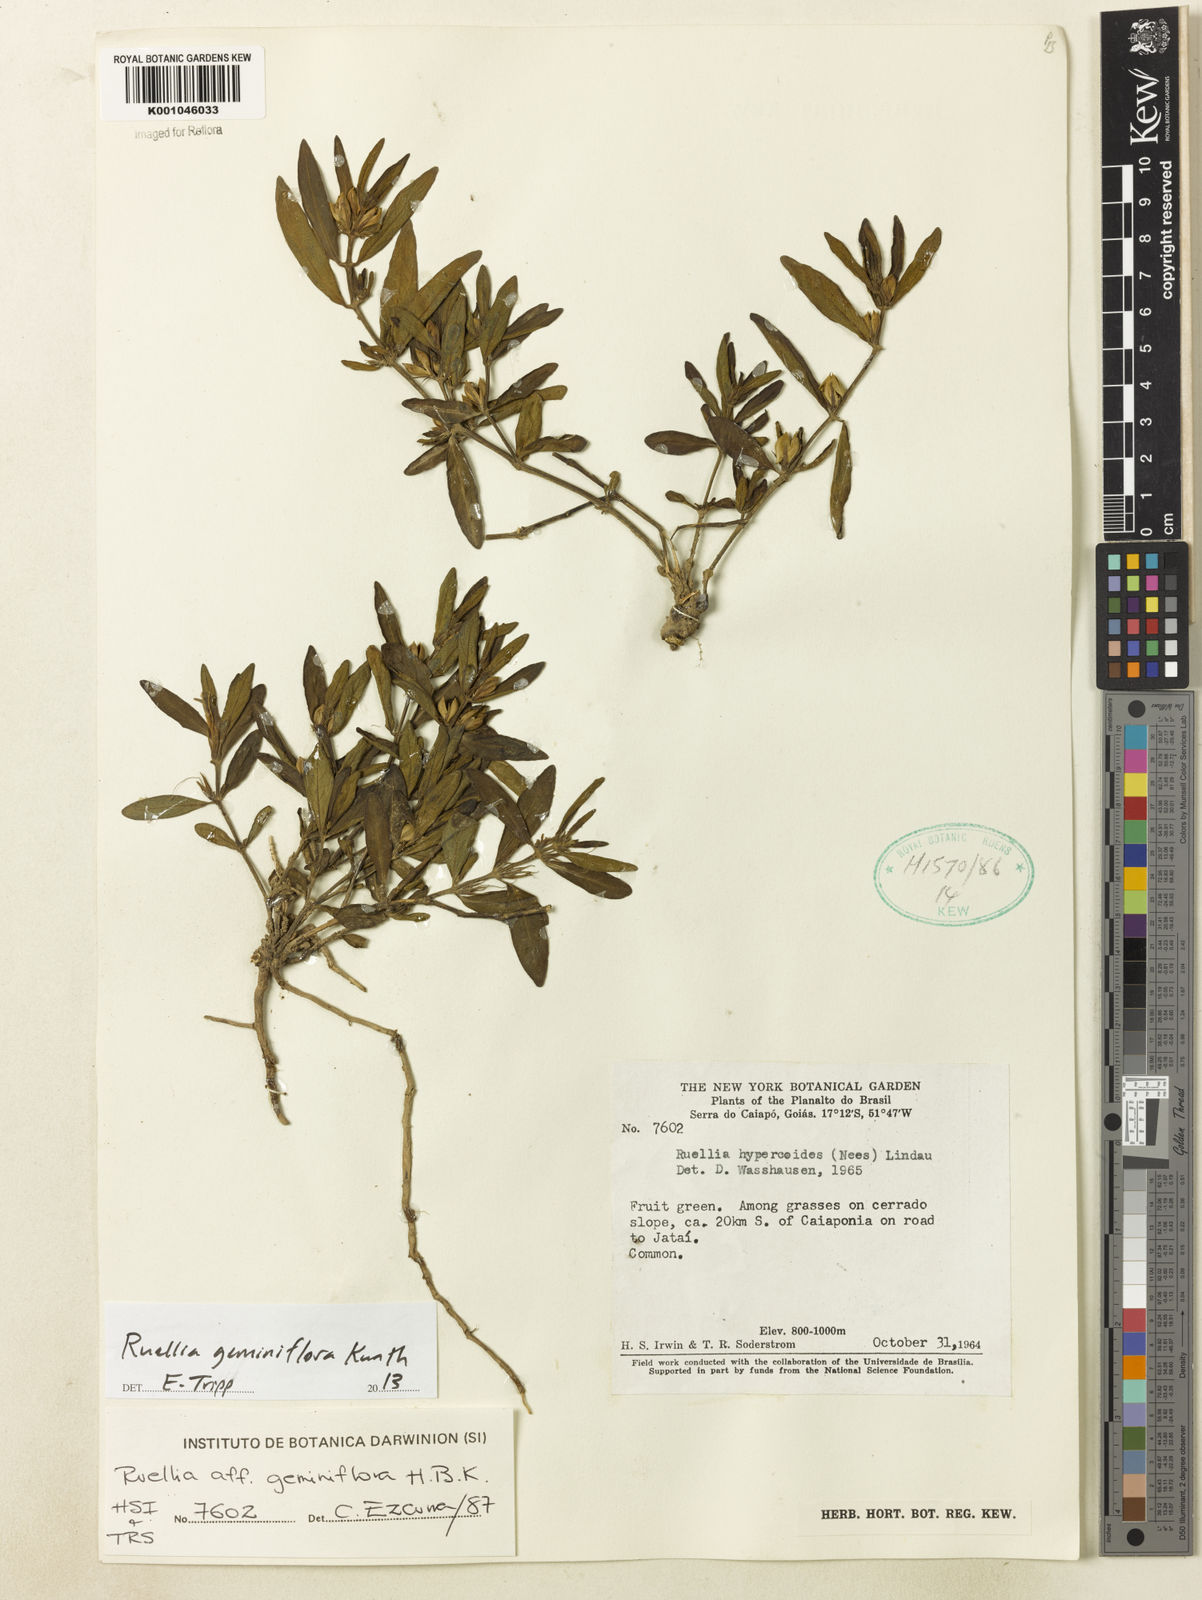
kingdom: Plantae
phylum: Tracheophyta
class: Magnoliopsida
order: Lamiales
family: Acanthaceae
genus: Ruellia
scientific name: Ruellia geminiflora
